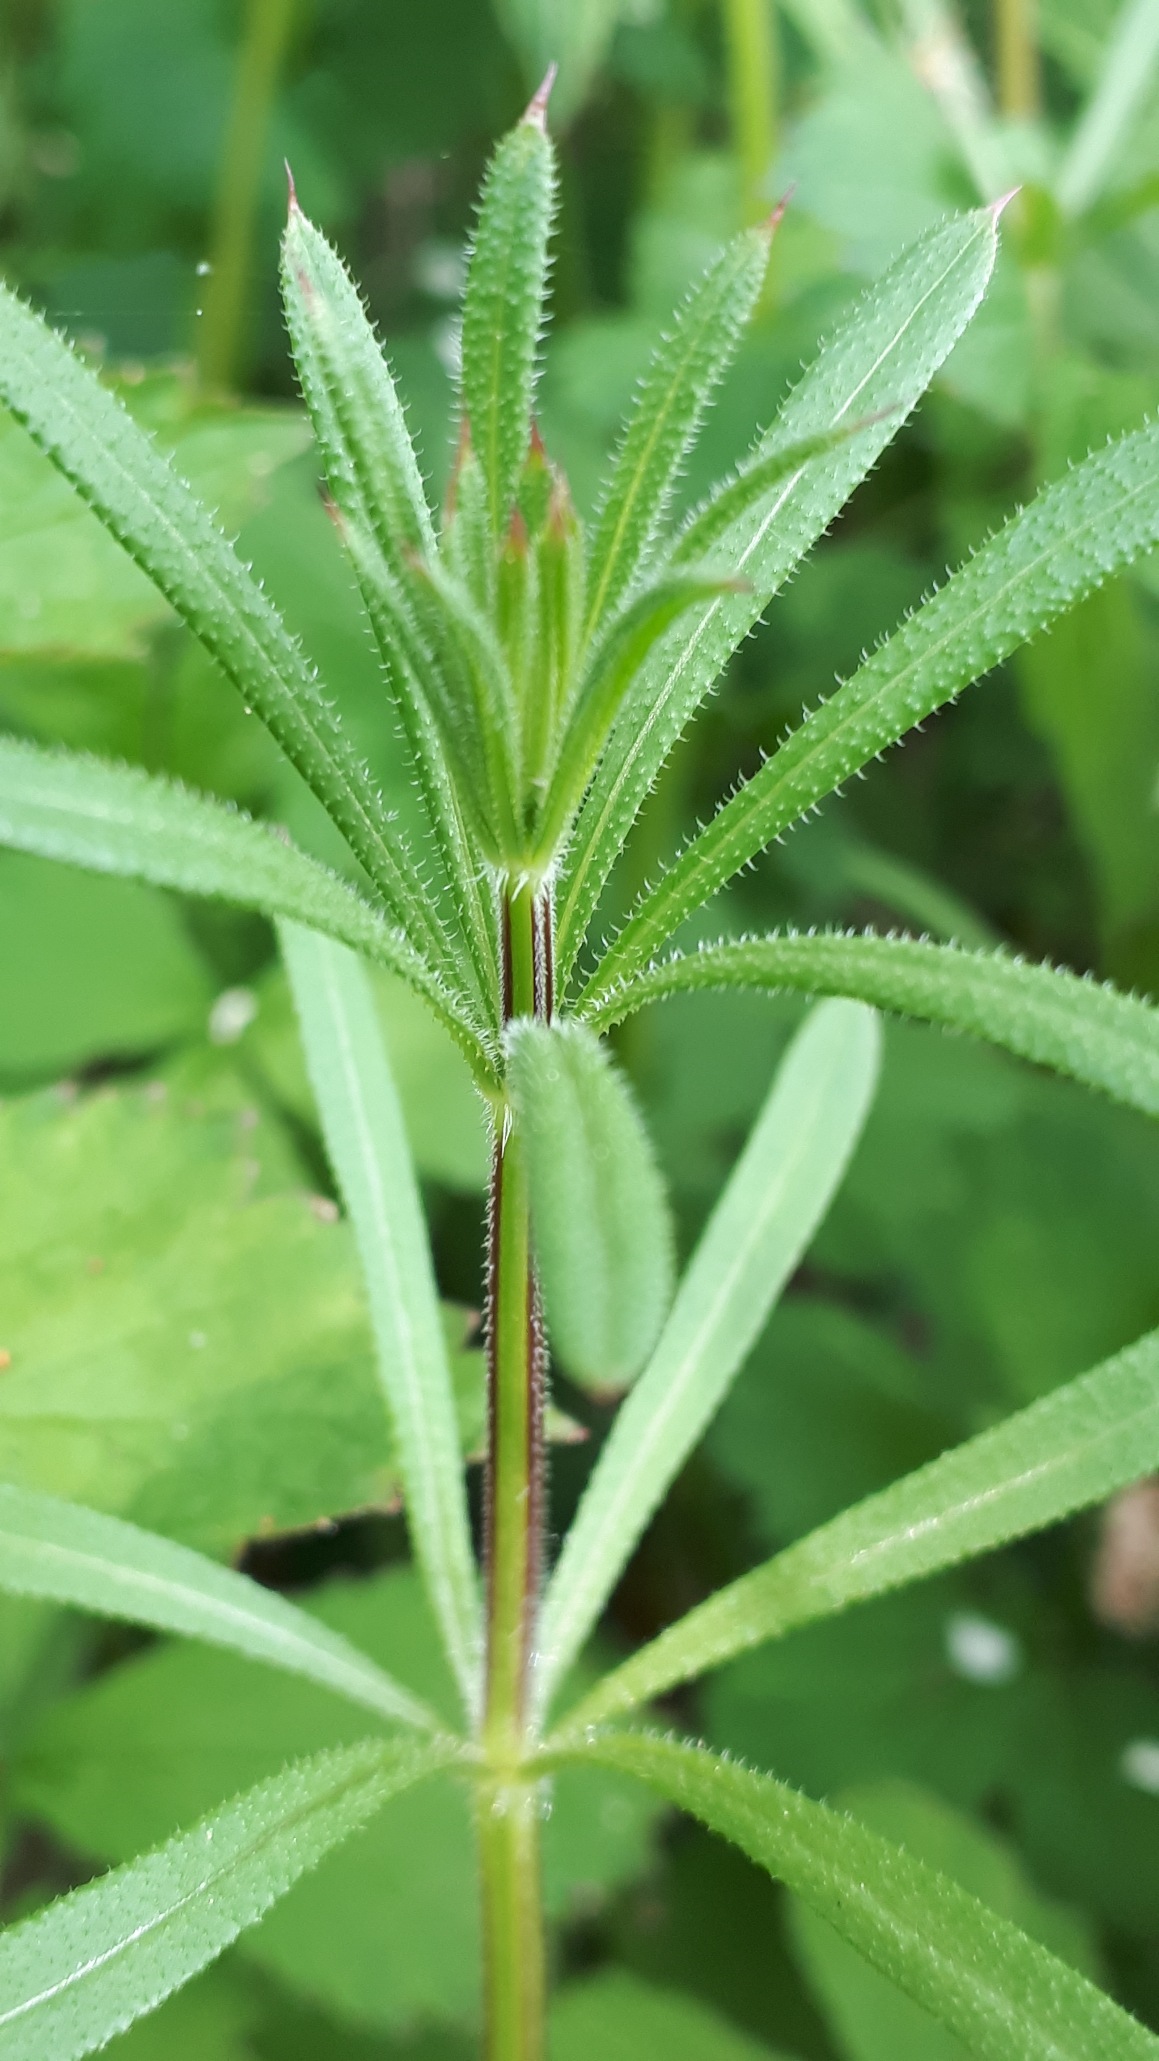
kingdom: Plantae
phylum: Tracheophyta
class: Magnoliopsida
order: Gentianales
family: Rubiaceae
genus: Galium
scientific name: Galium aparine
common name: Burre-snerre
